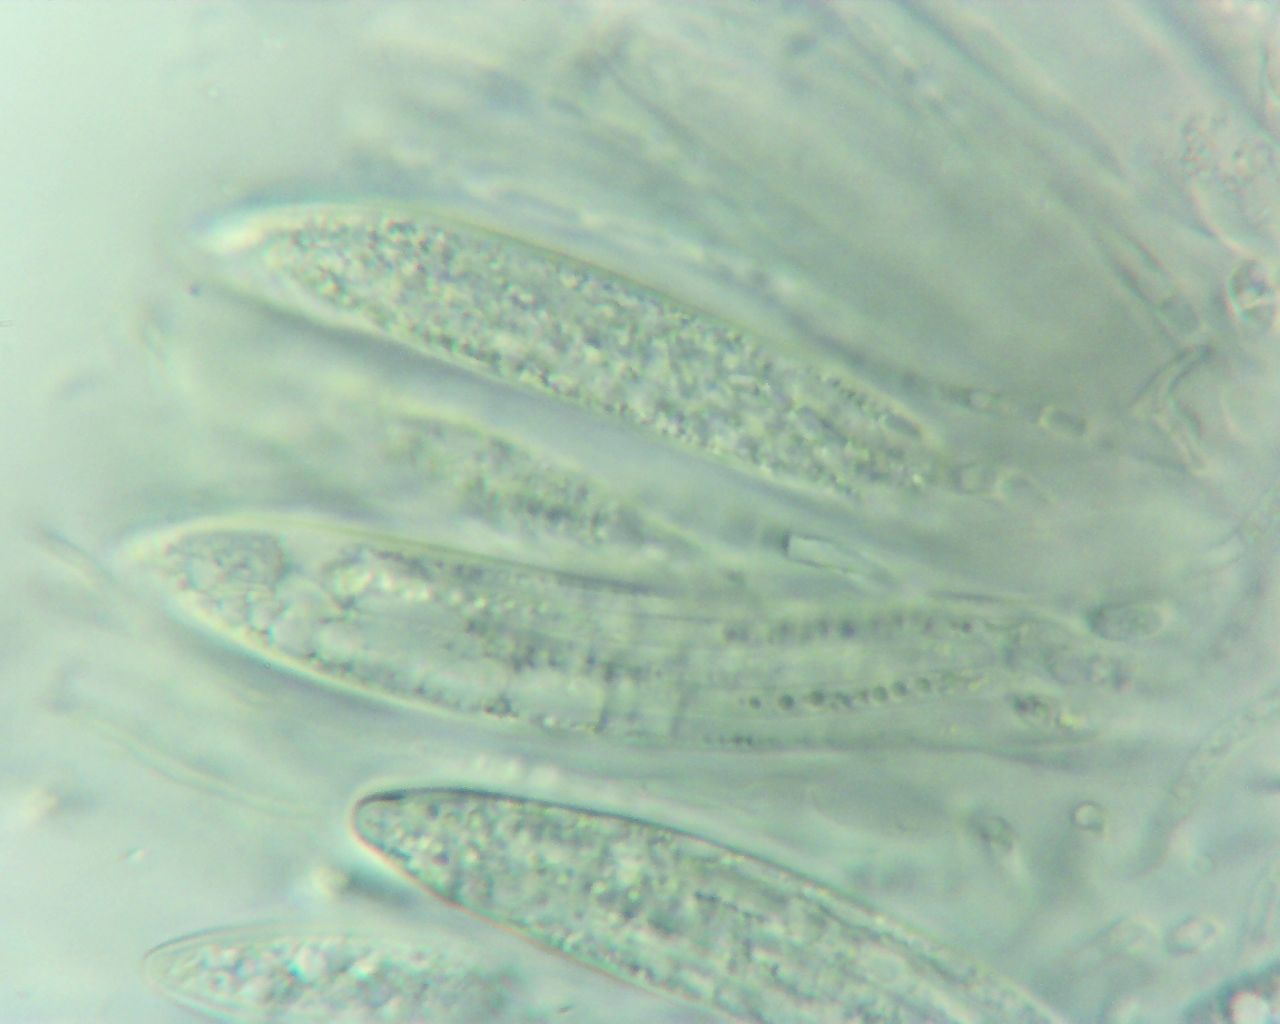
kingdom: Fungi
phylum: Ascomycota
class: Leotiomycetes
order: Rhytismatales
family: Rhytismataceae
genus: Lophodermium
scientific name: Lophodermium juniperinum
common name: ene-fureplet
